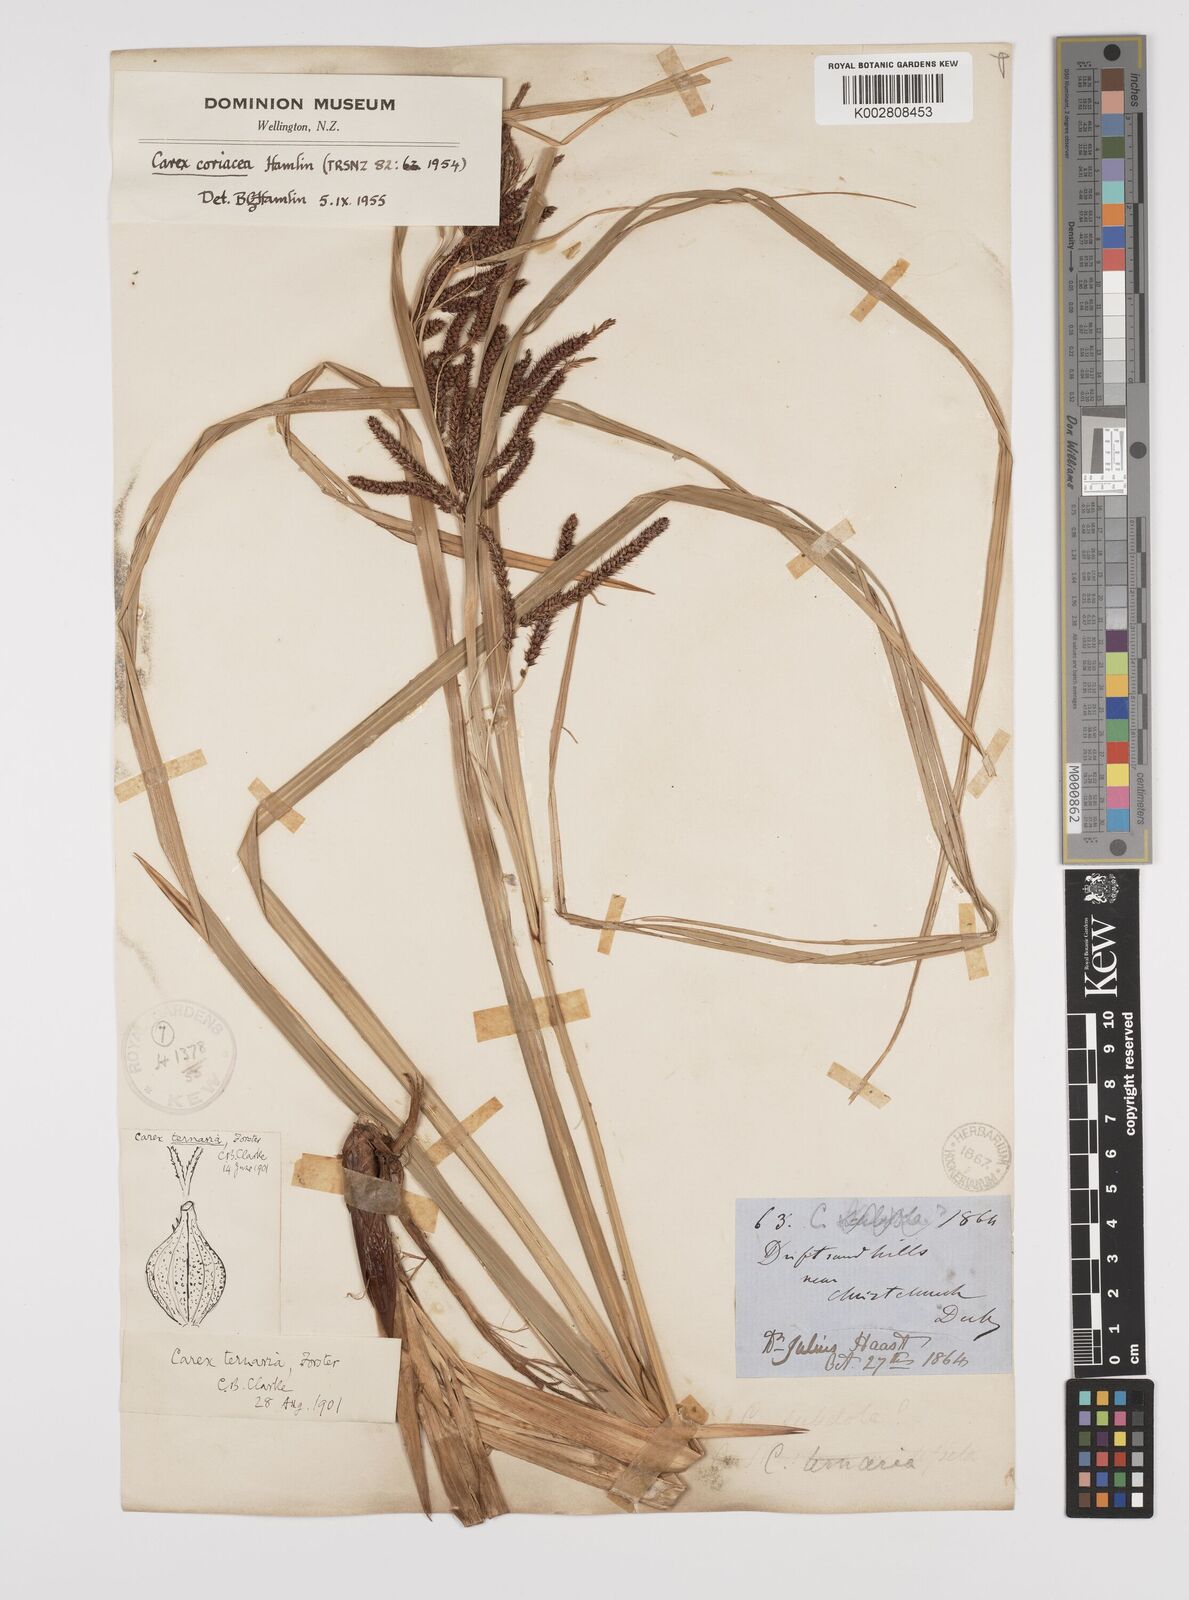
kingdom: Plantae
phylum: Tracheophyta
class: Liliopsida
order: Poales
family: Cyperaceae
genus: Carex
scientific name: Carex coriacea
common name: Rautahi
